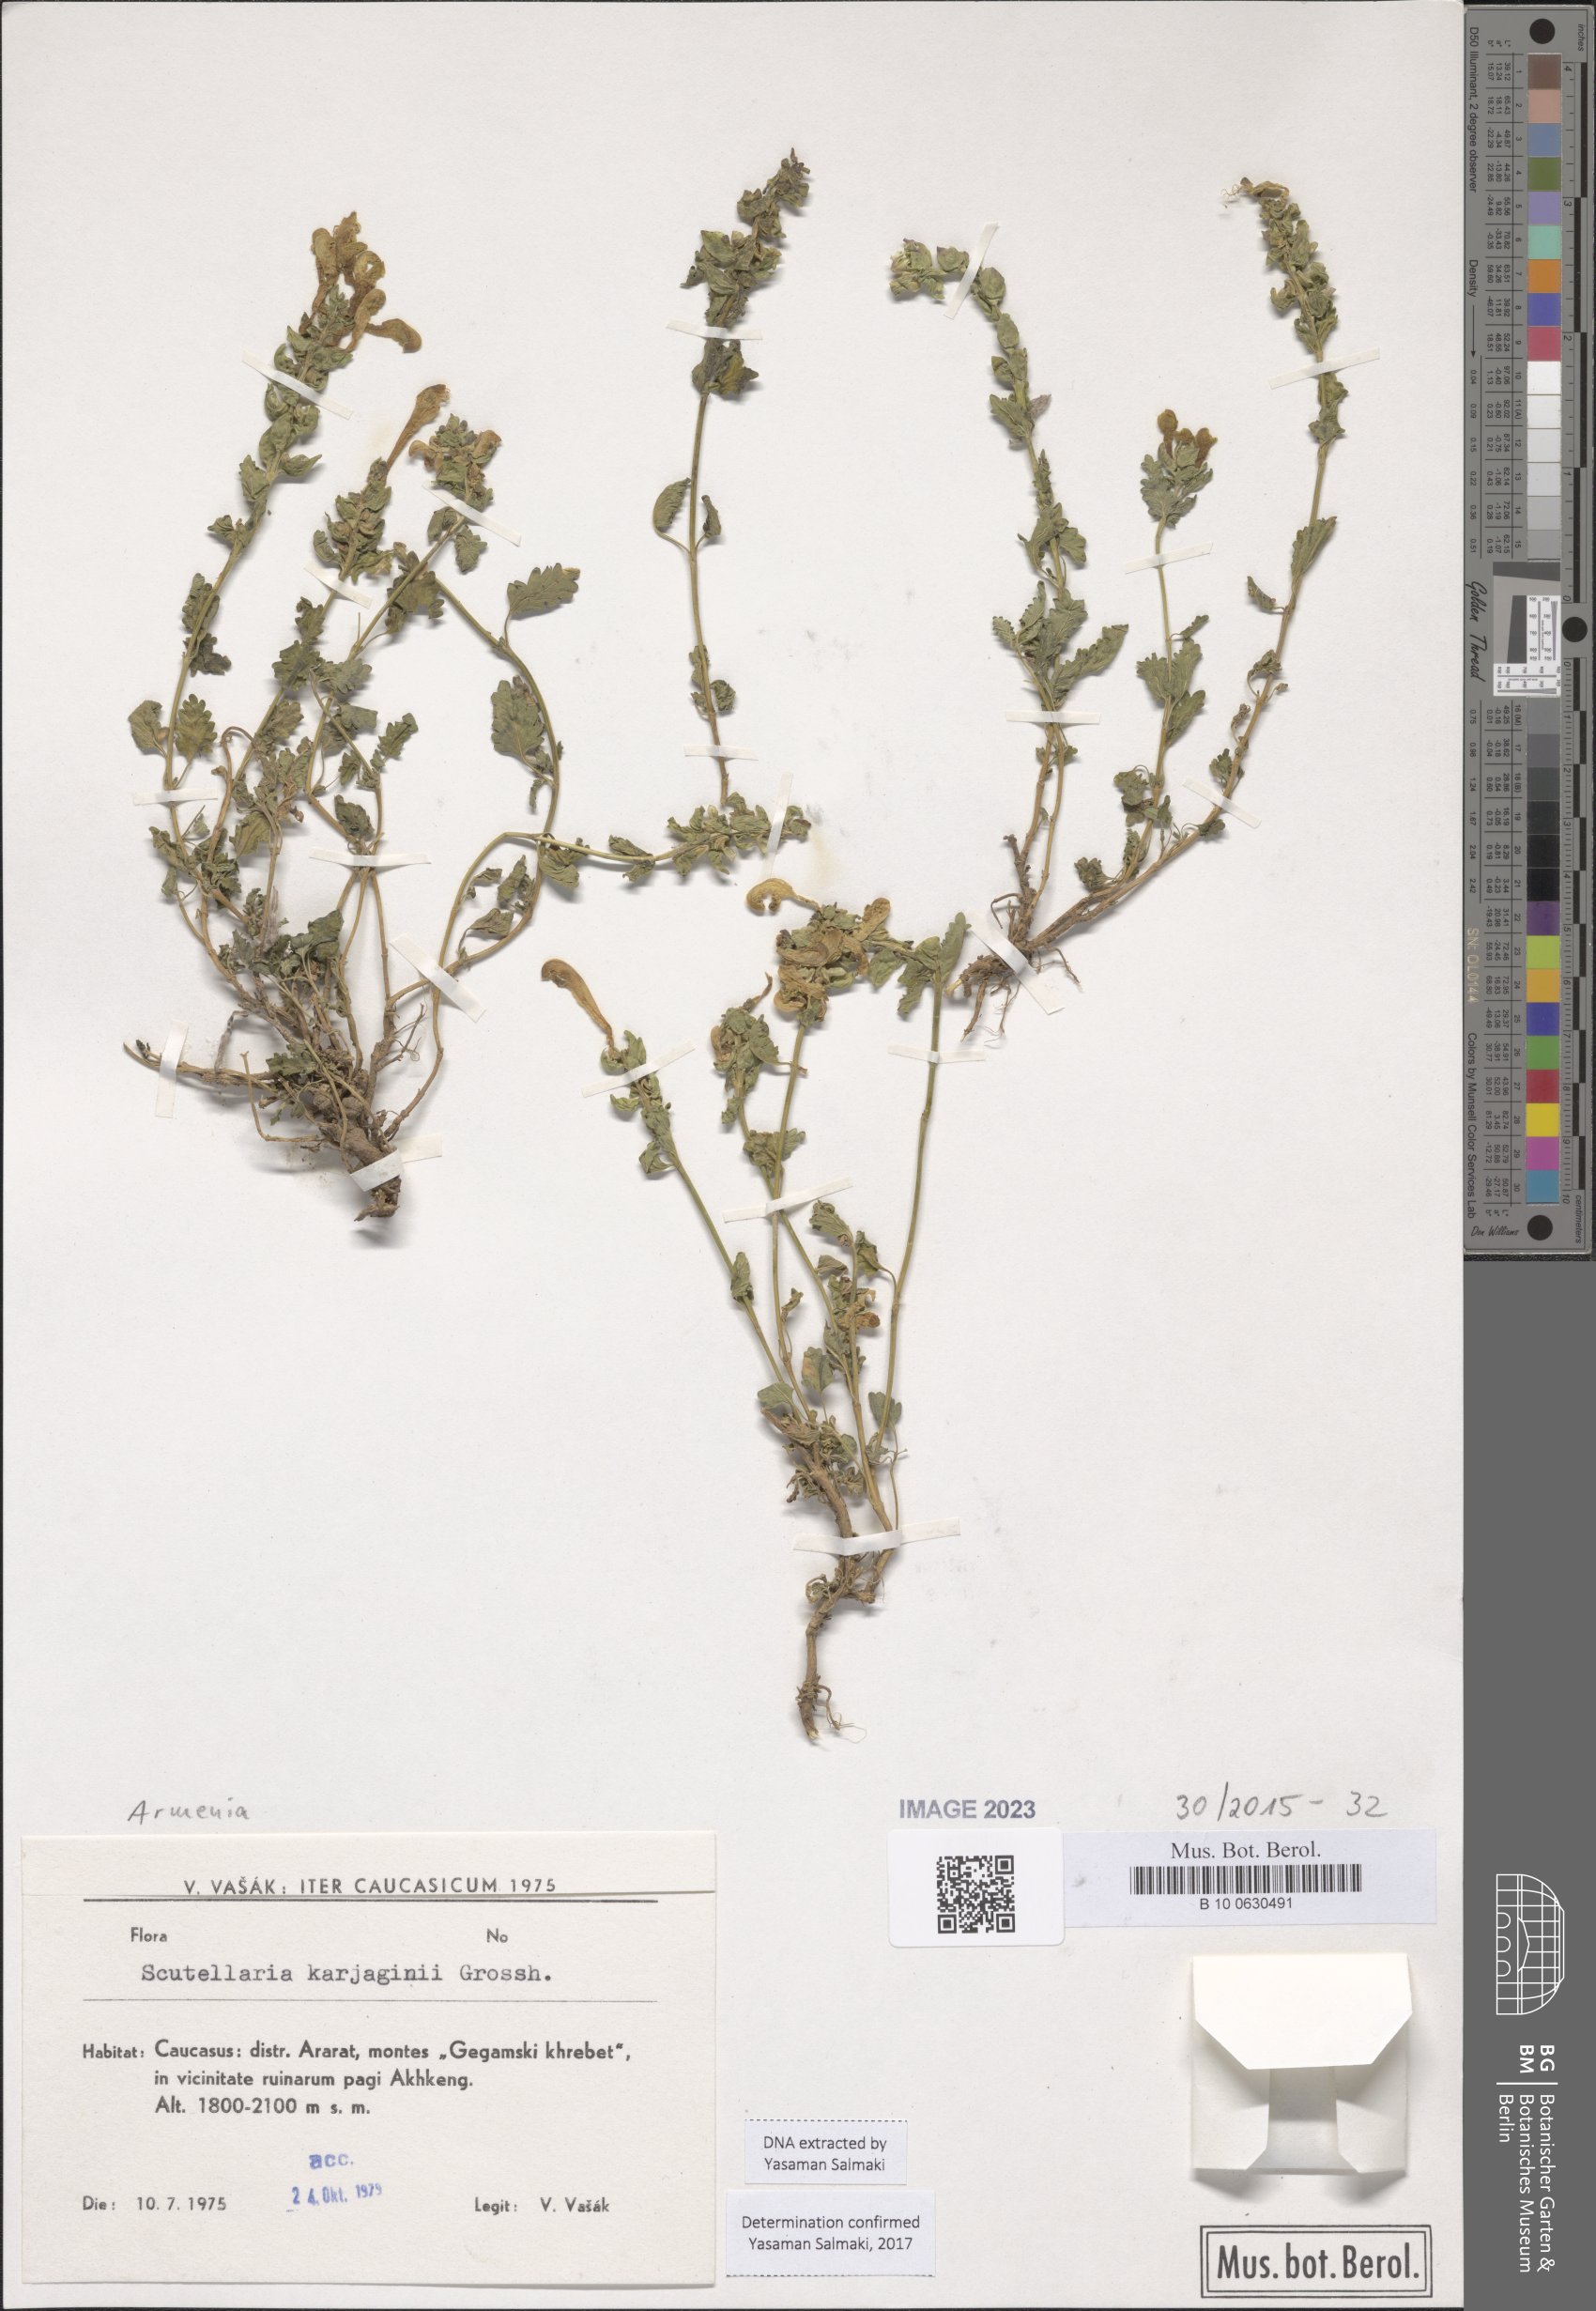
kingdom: Plantae
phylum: Tracheophyta
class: Magnoliopsida
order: Lamiales
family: Lamiaceae
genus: Scutellaria
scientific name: Scutellaria karjaginii
